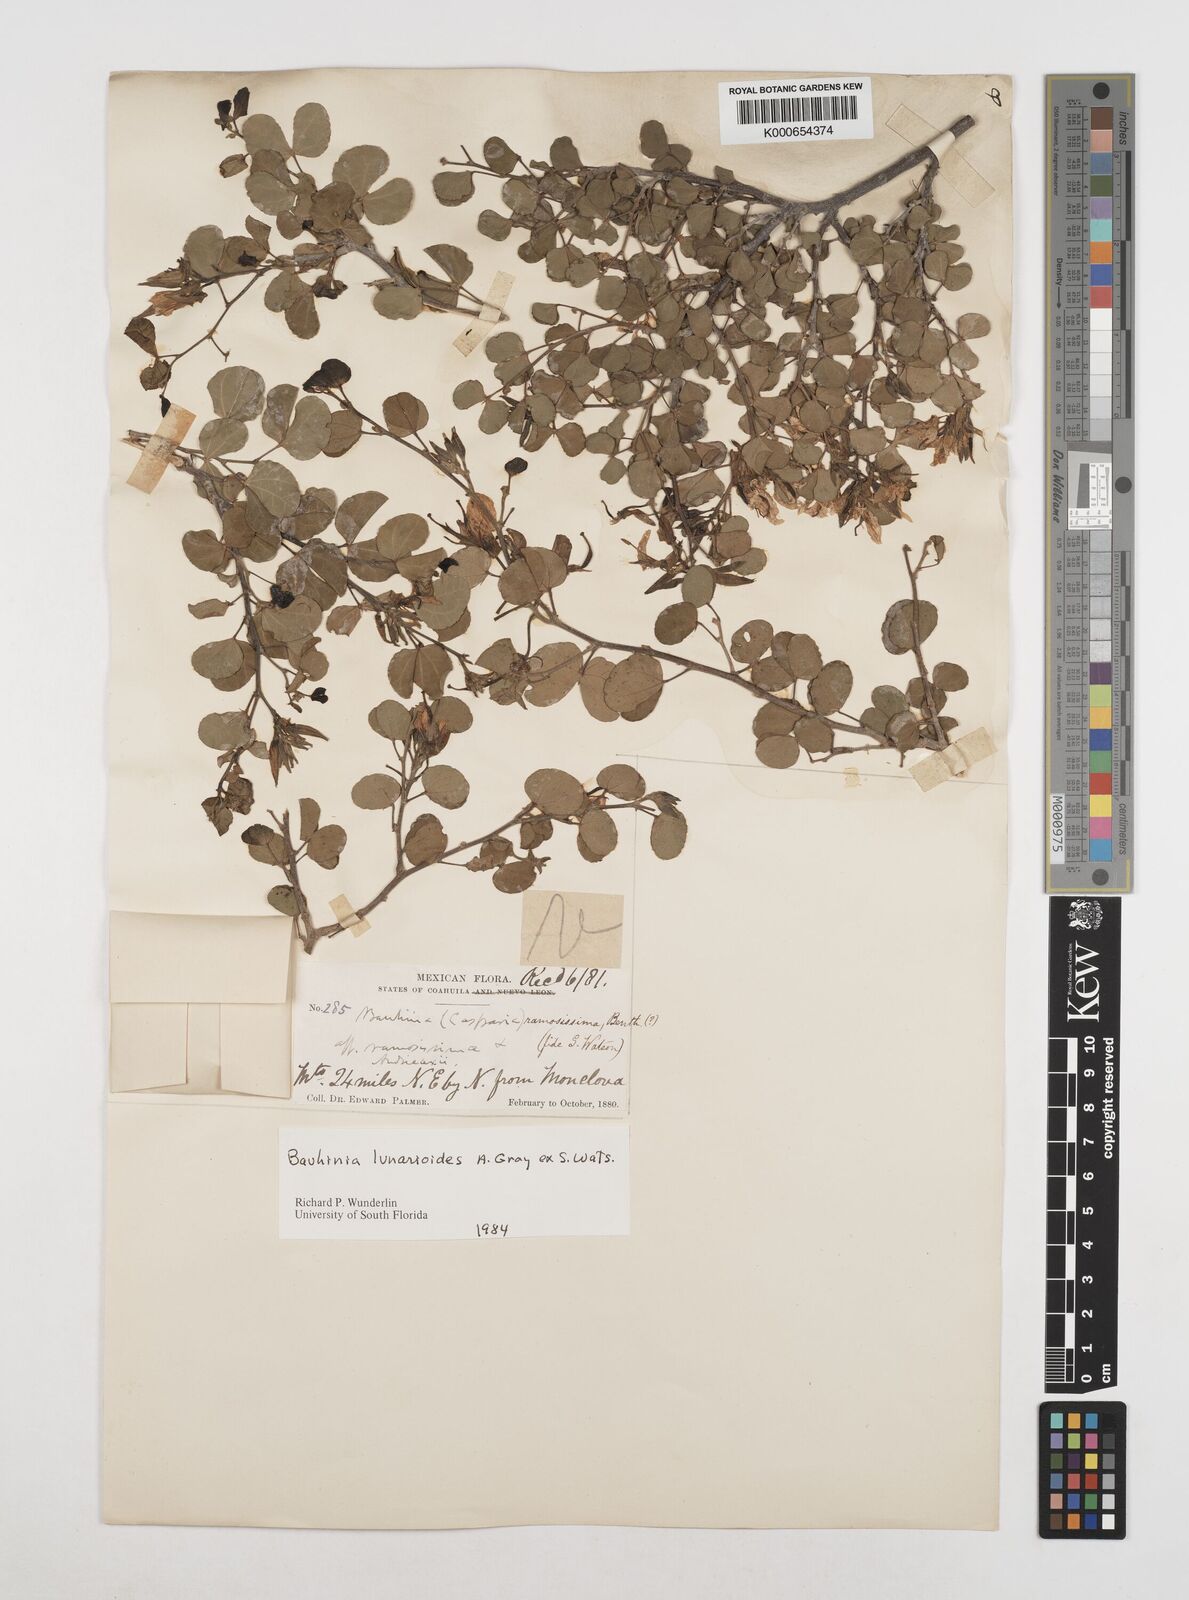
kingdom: Plantae
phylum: Tracheophyta
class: Magnoliopsida
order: Fabales
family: Fabaceae
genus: Bauhinia
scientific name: Bauhinia lunarioides
